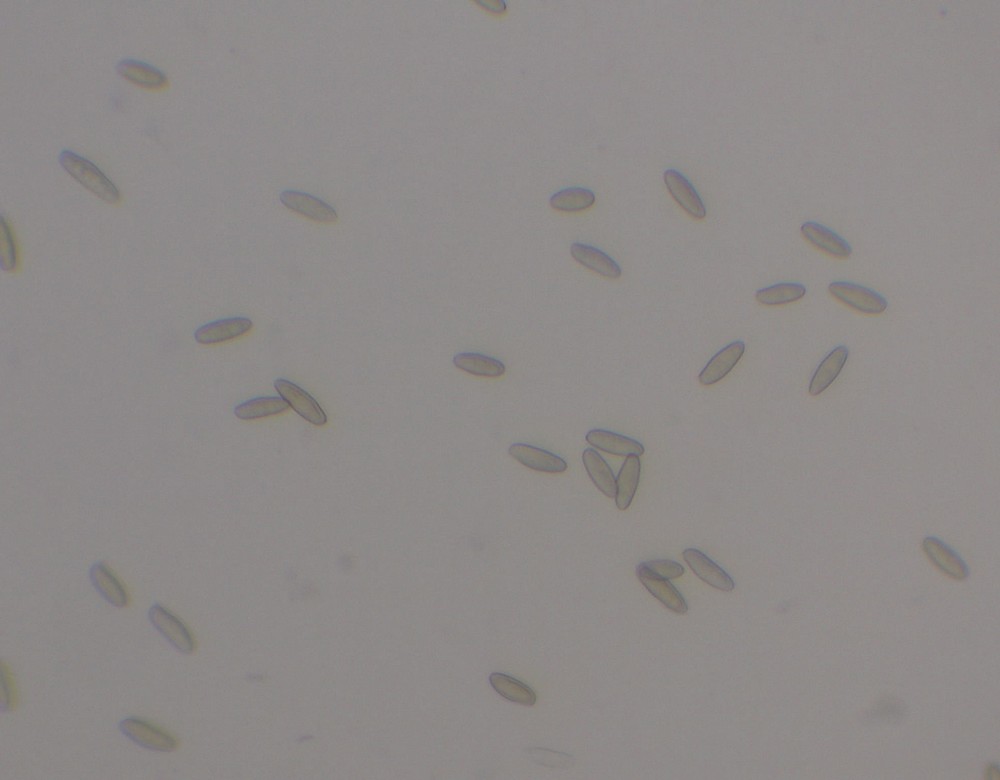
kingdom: Fungi
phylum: Basidiomycota
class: Agaricomycetes
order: Boletales
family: Boletaceae
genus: Imleria
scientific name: Imleria badia
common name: brunstokket rørhat
